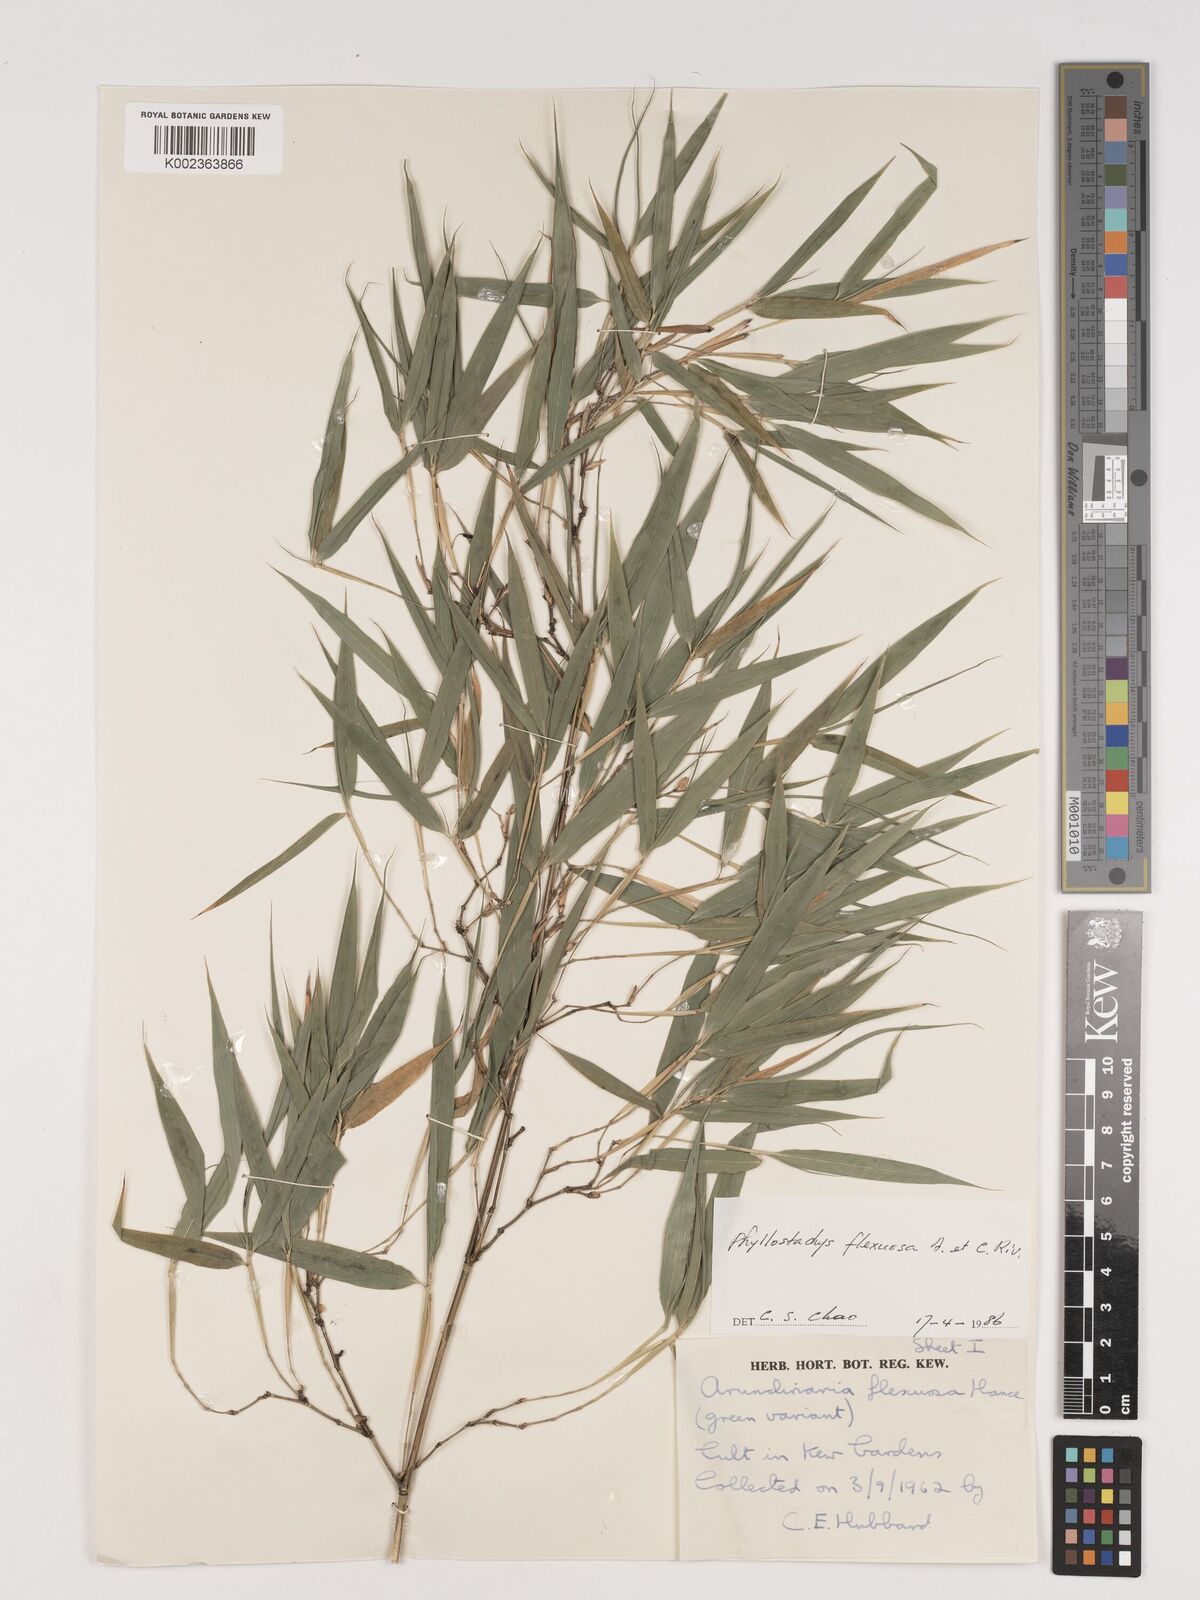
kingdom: Plantae
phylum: Tracheophyta
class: Liliopsida
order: Poales
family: Poaceae
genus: Phyllostachys
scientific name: Phyllostachys flexuosa
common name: Drooping timber bamboo
